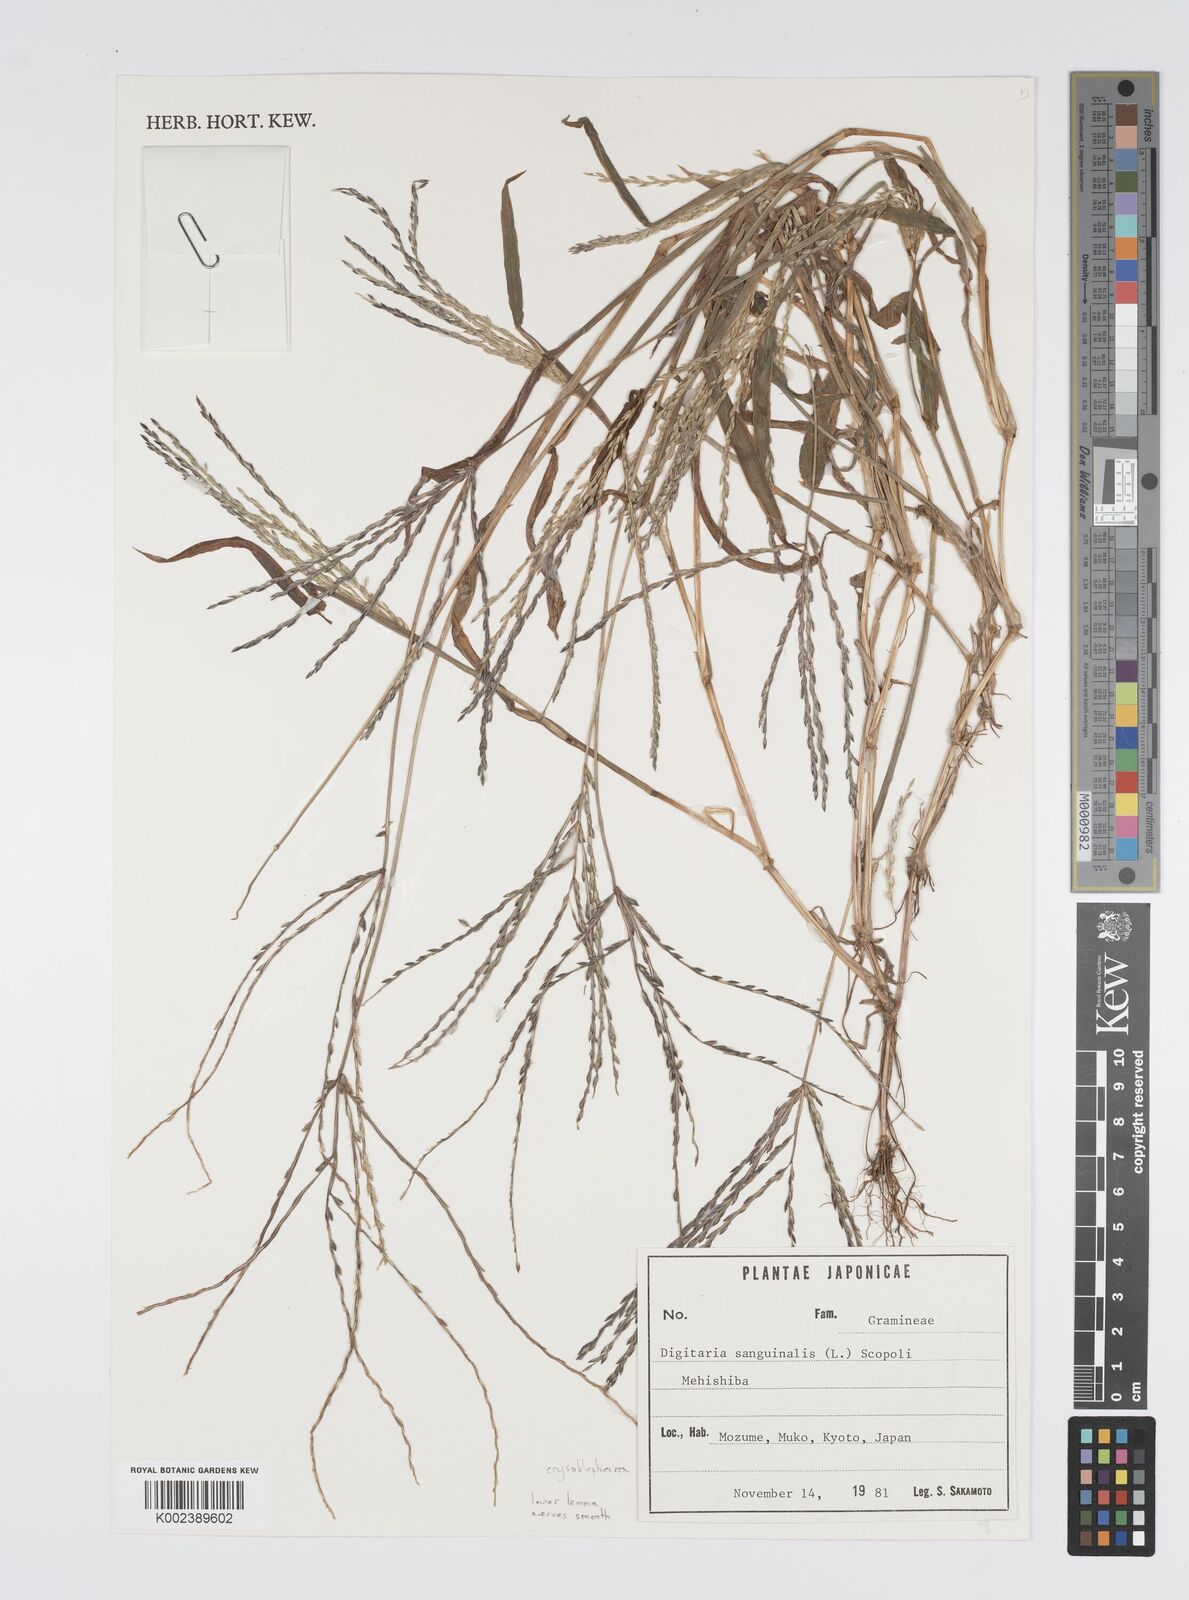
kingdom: Plantae
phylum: Tracheophyta
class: Liliopsida
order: Poales
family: Poaceae
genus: Digitaria
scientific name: Digitaria ciliaris
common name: Tropical finger-grass
